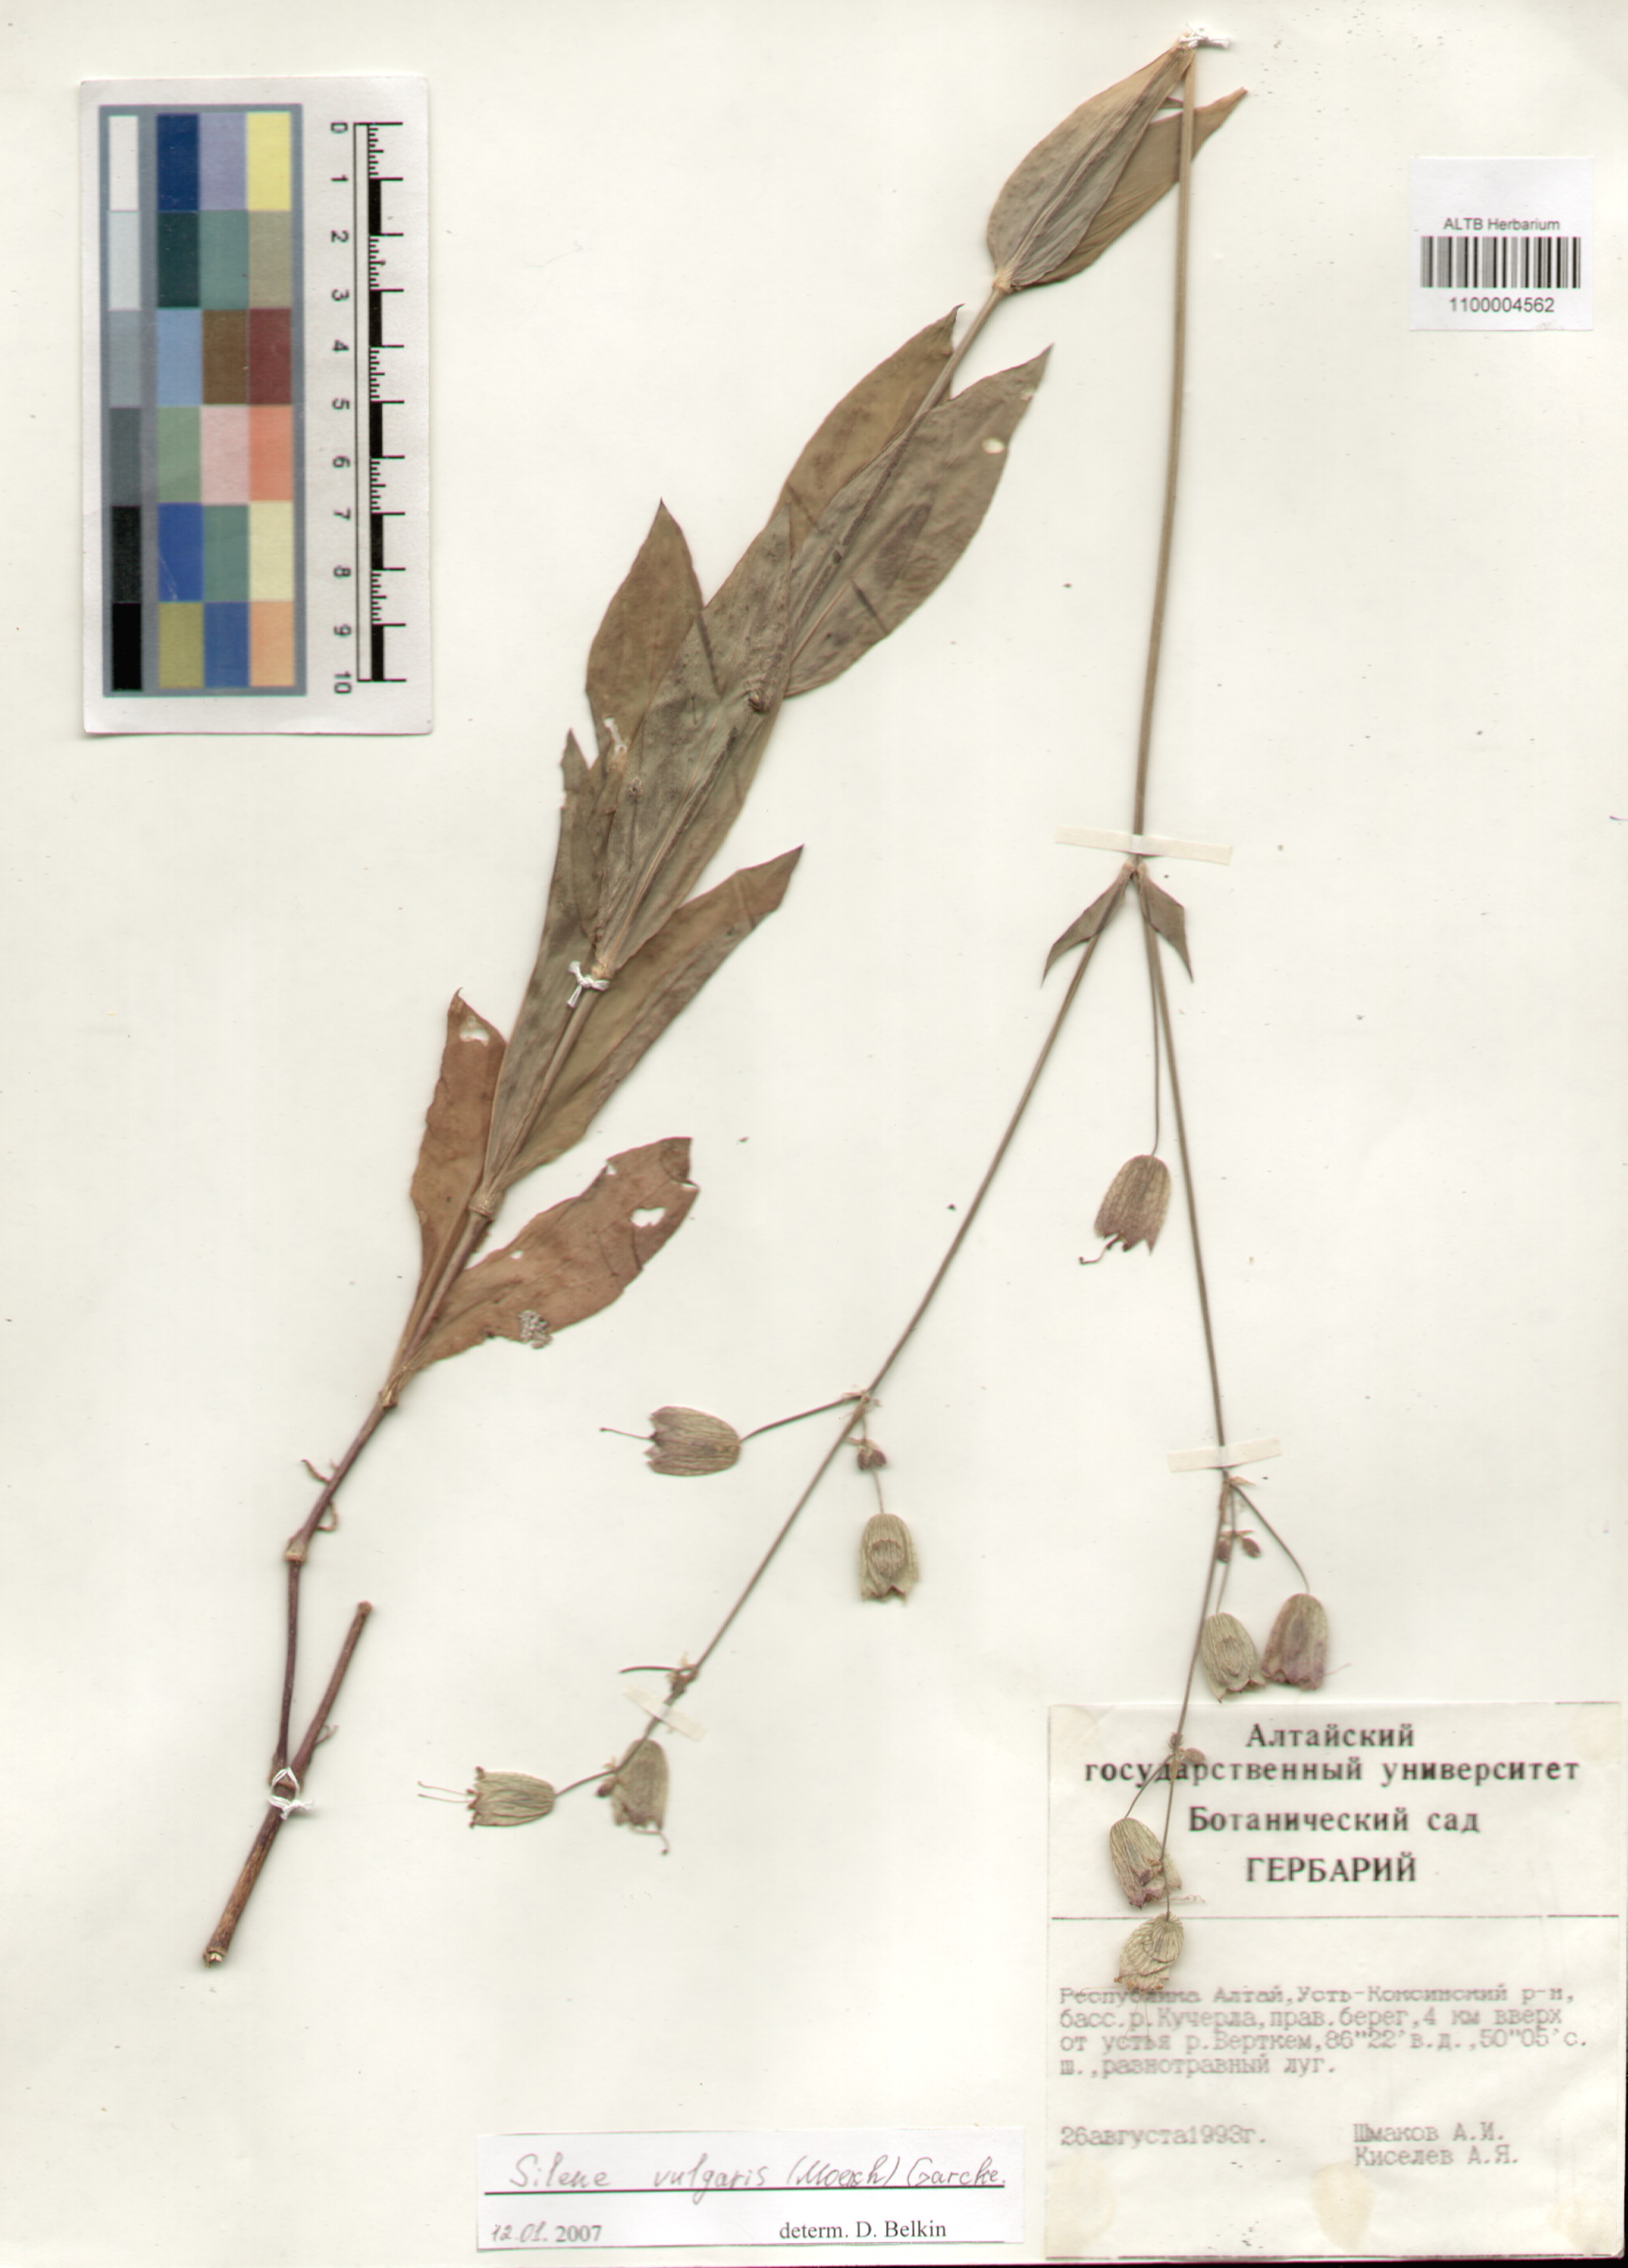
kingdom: Plantae
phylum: Tracheophyta
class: Magnoliopsida
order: Caryophyllales
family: Caryophyllaceae
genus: Silene
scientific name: Silene vulgaris
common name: Bladder campion
